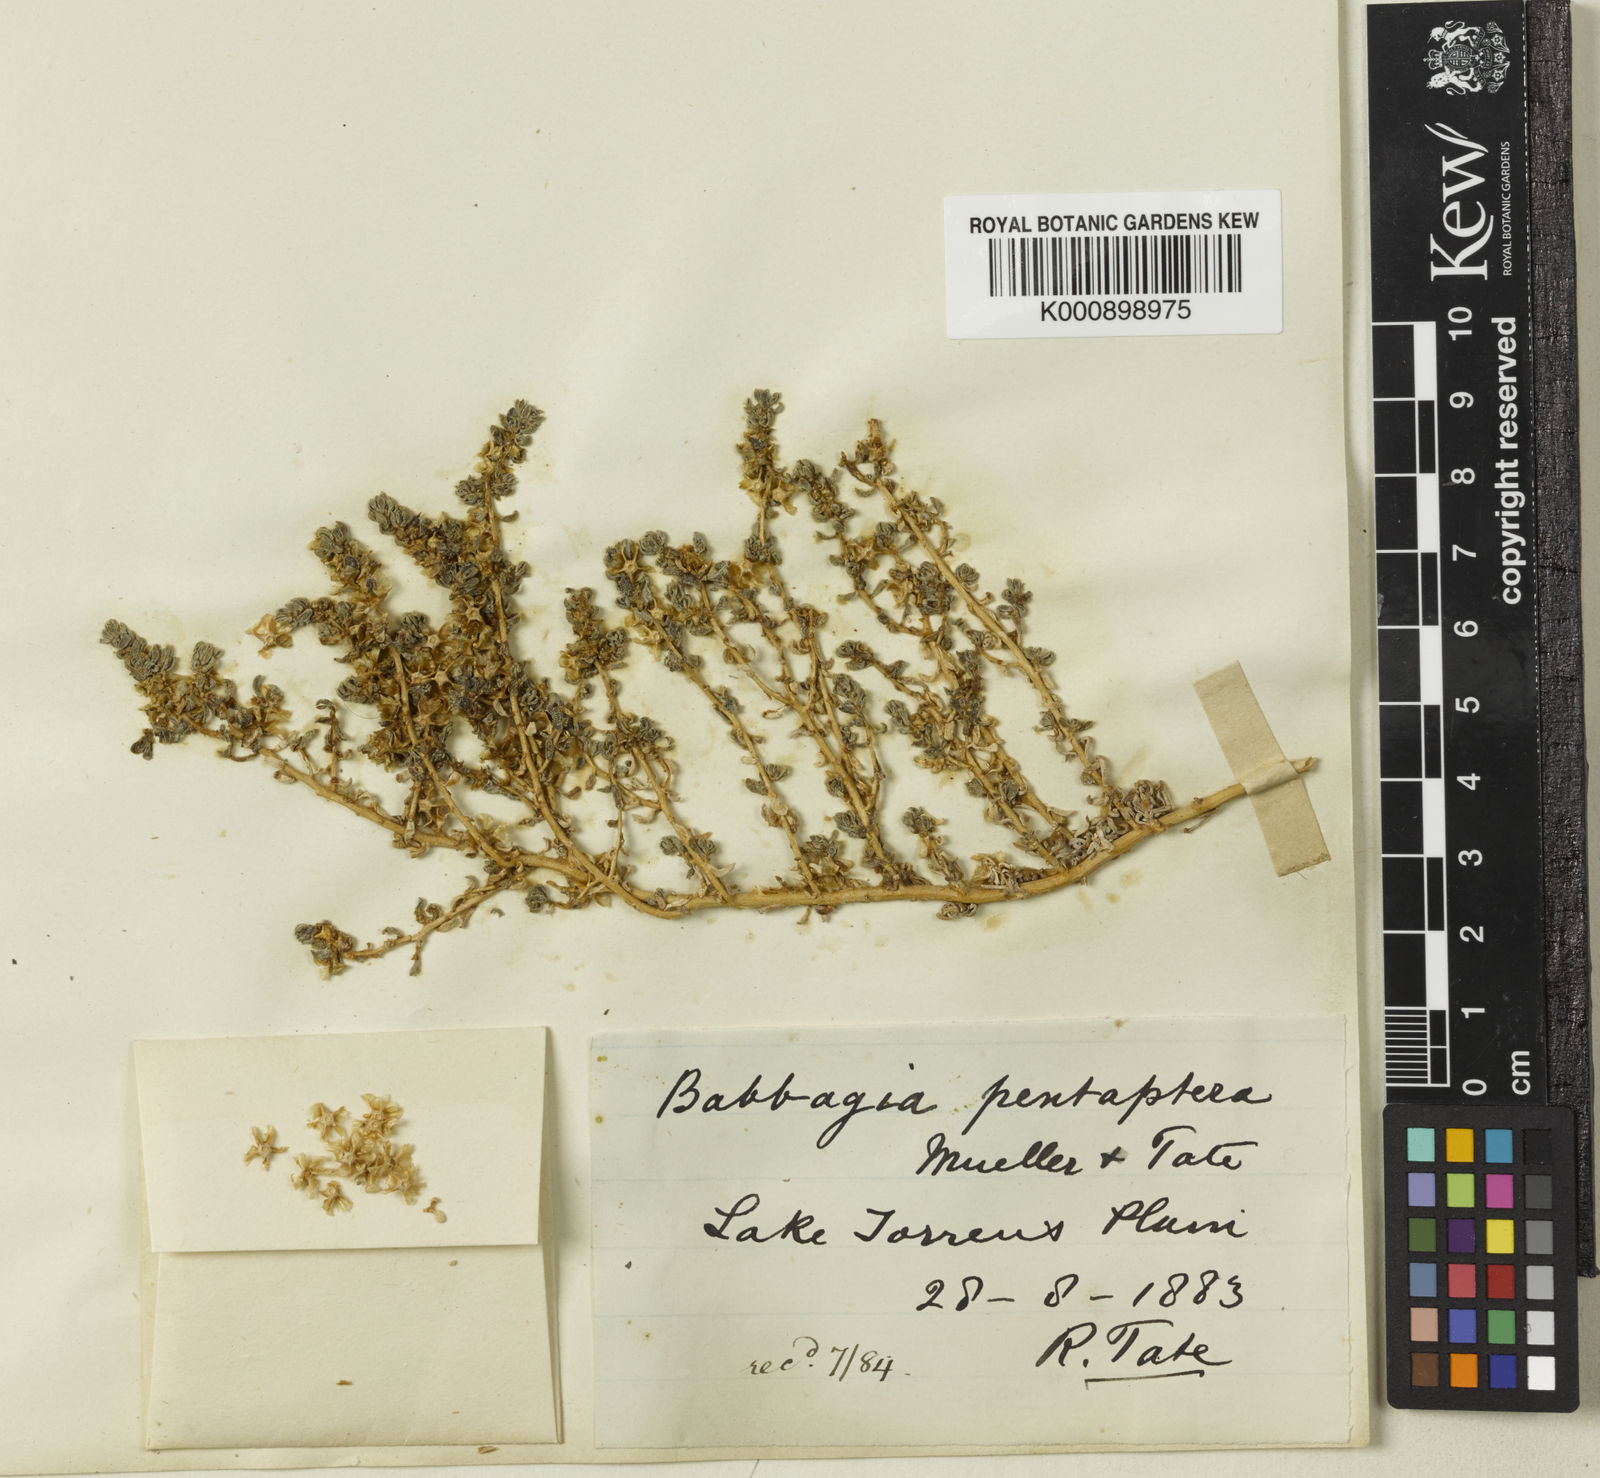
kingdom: Plantae
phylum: Tracheophyta
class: Magnoliopsida
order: Caryophyllales
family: Amaranthaceae
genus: Osteocarpum
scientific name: Osteocarpum pentapterum
